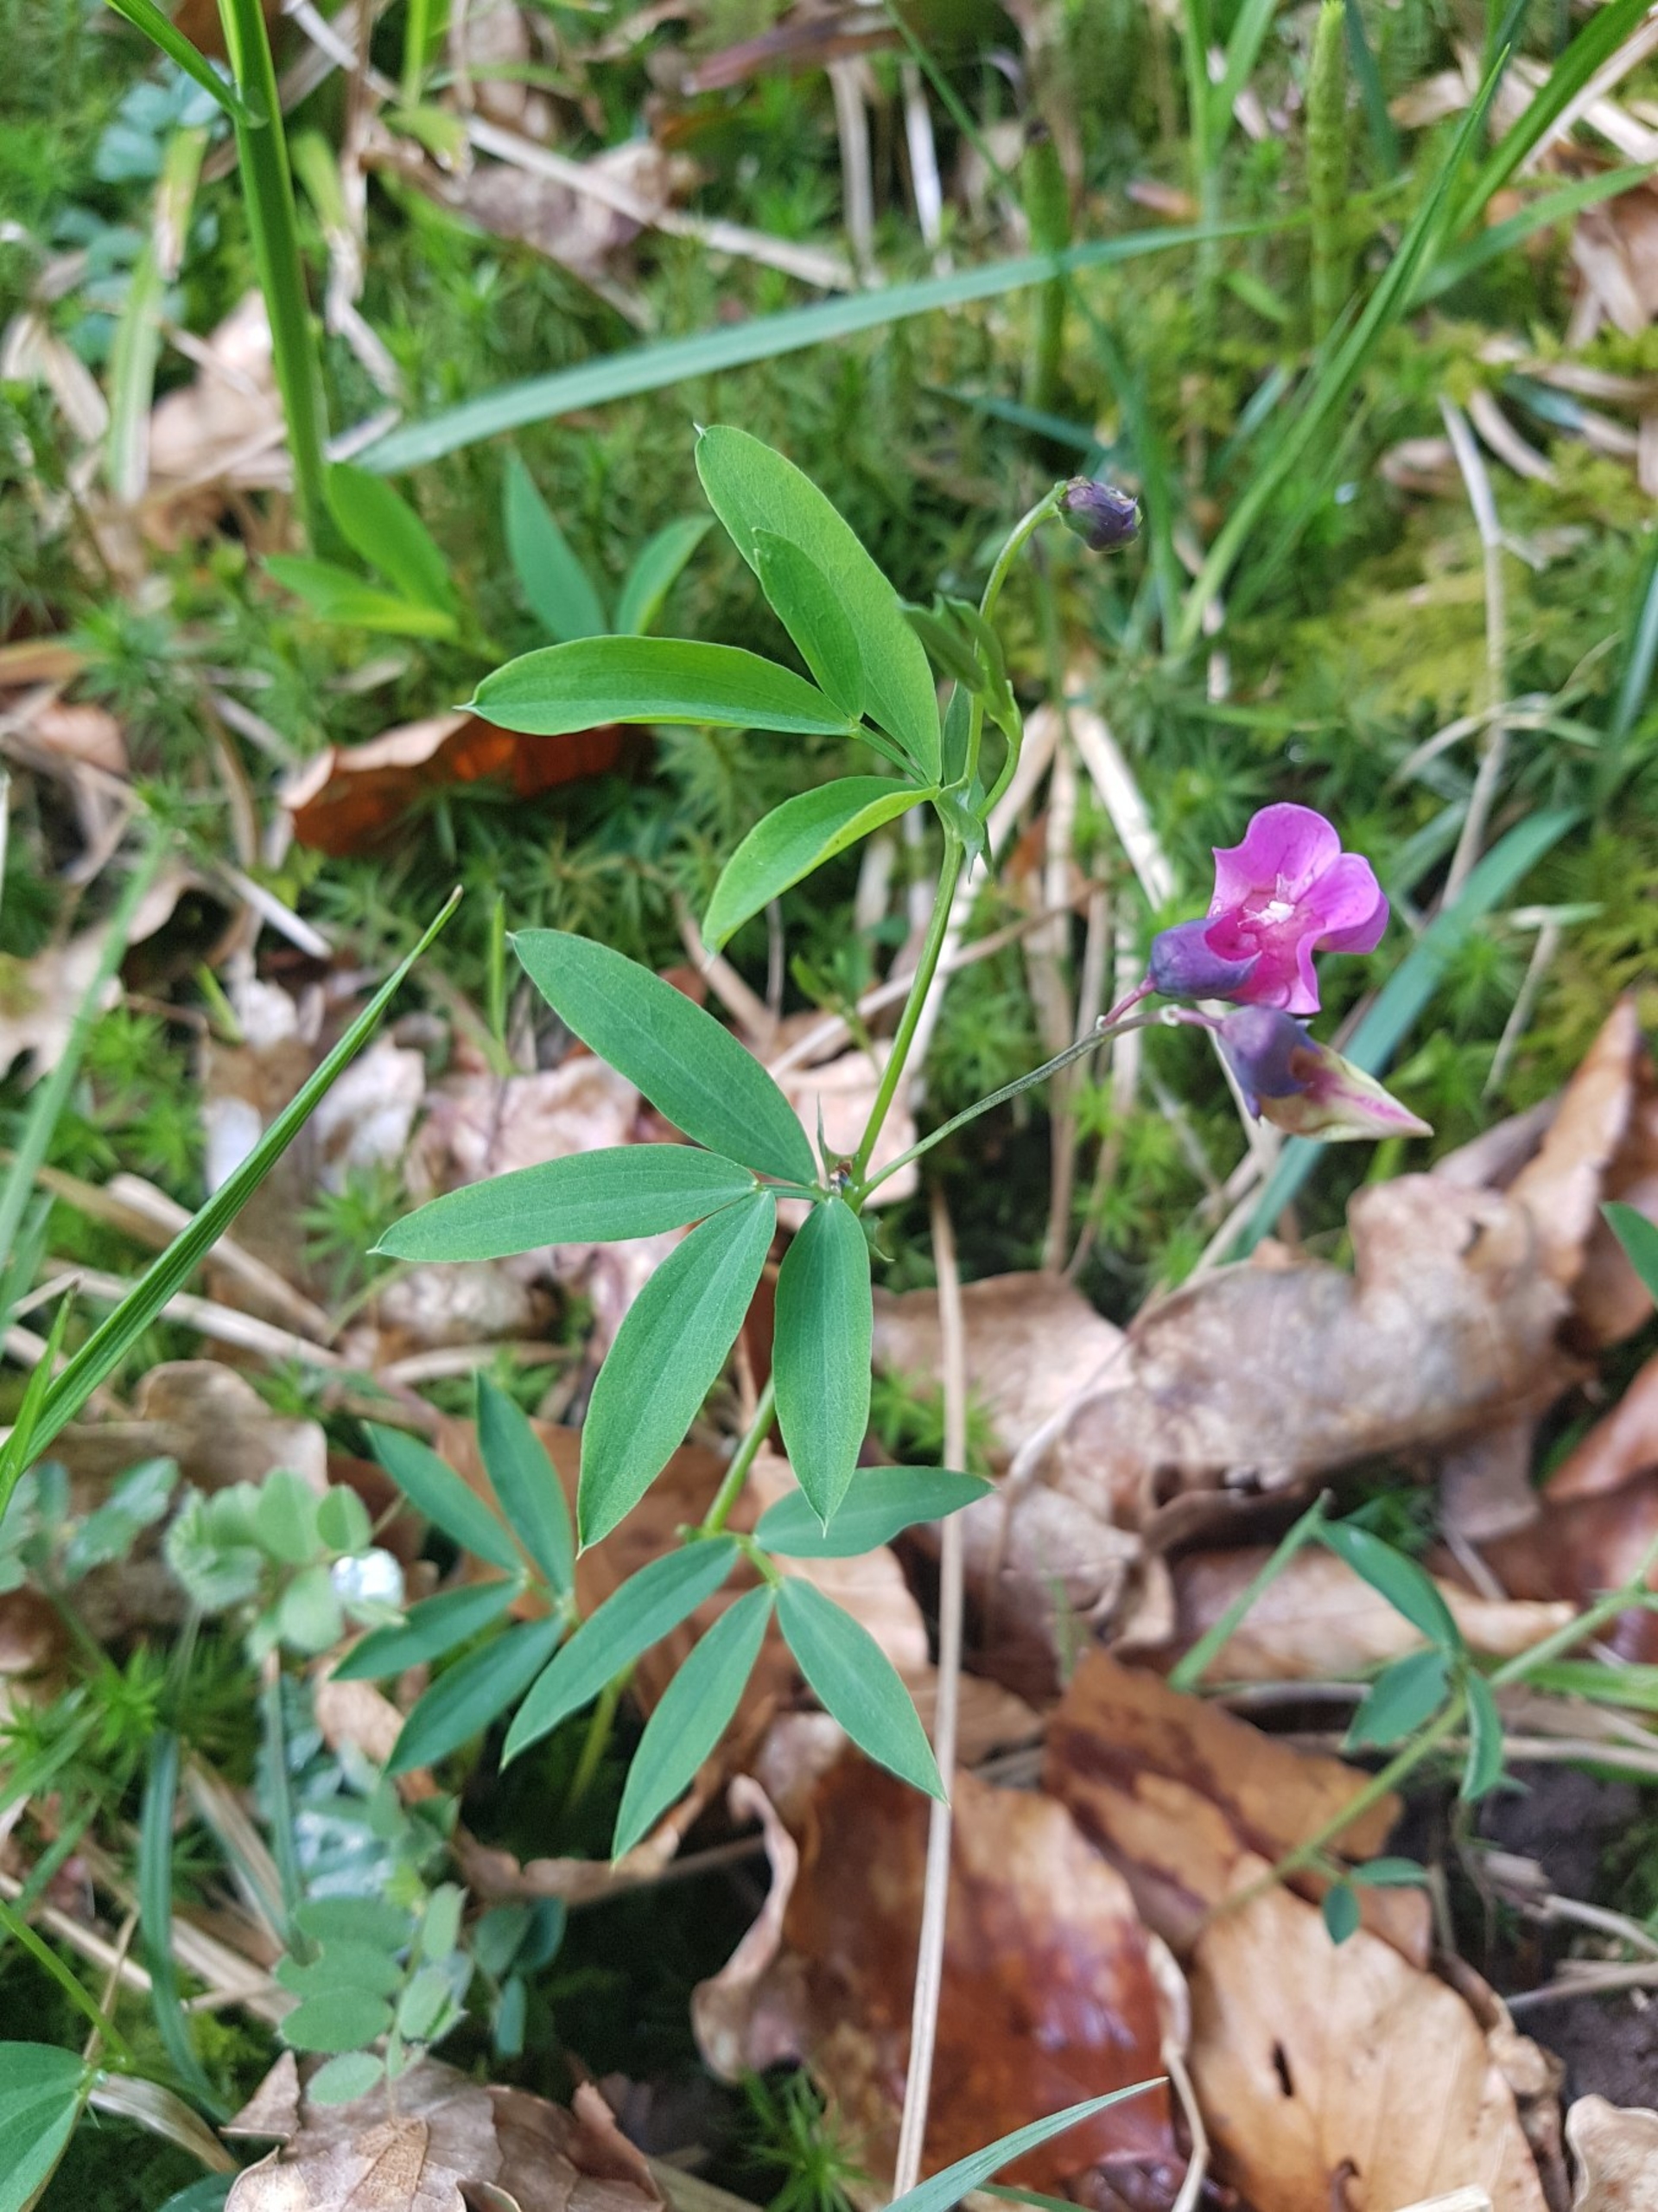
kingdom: Plantae
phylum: Tracheophyta
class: Magnoliopsida
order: Fabales
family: Fabaceae
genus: Lathyrus
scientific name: Lathyrus linifolius
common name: Krat-fladbælg
